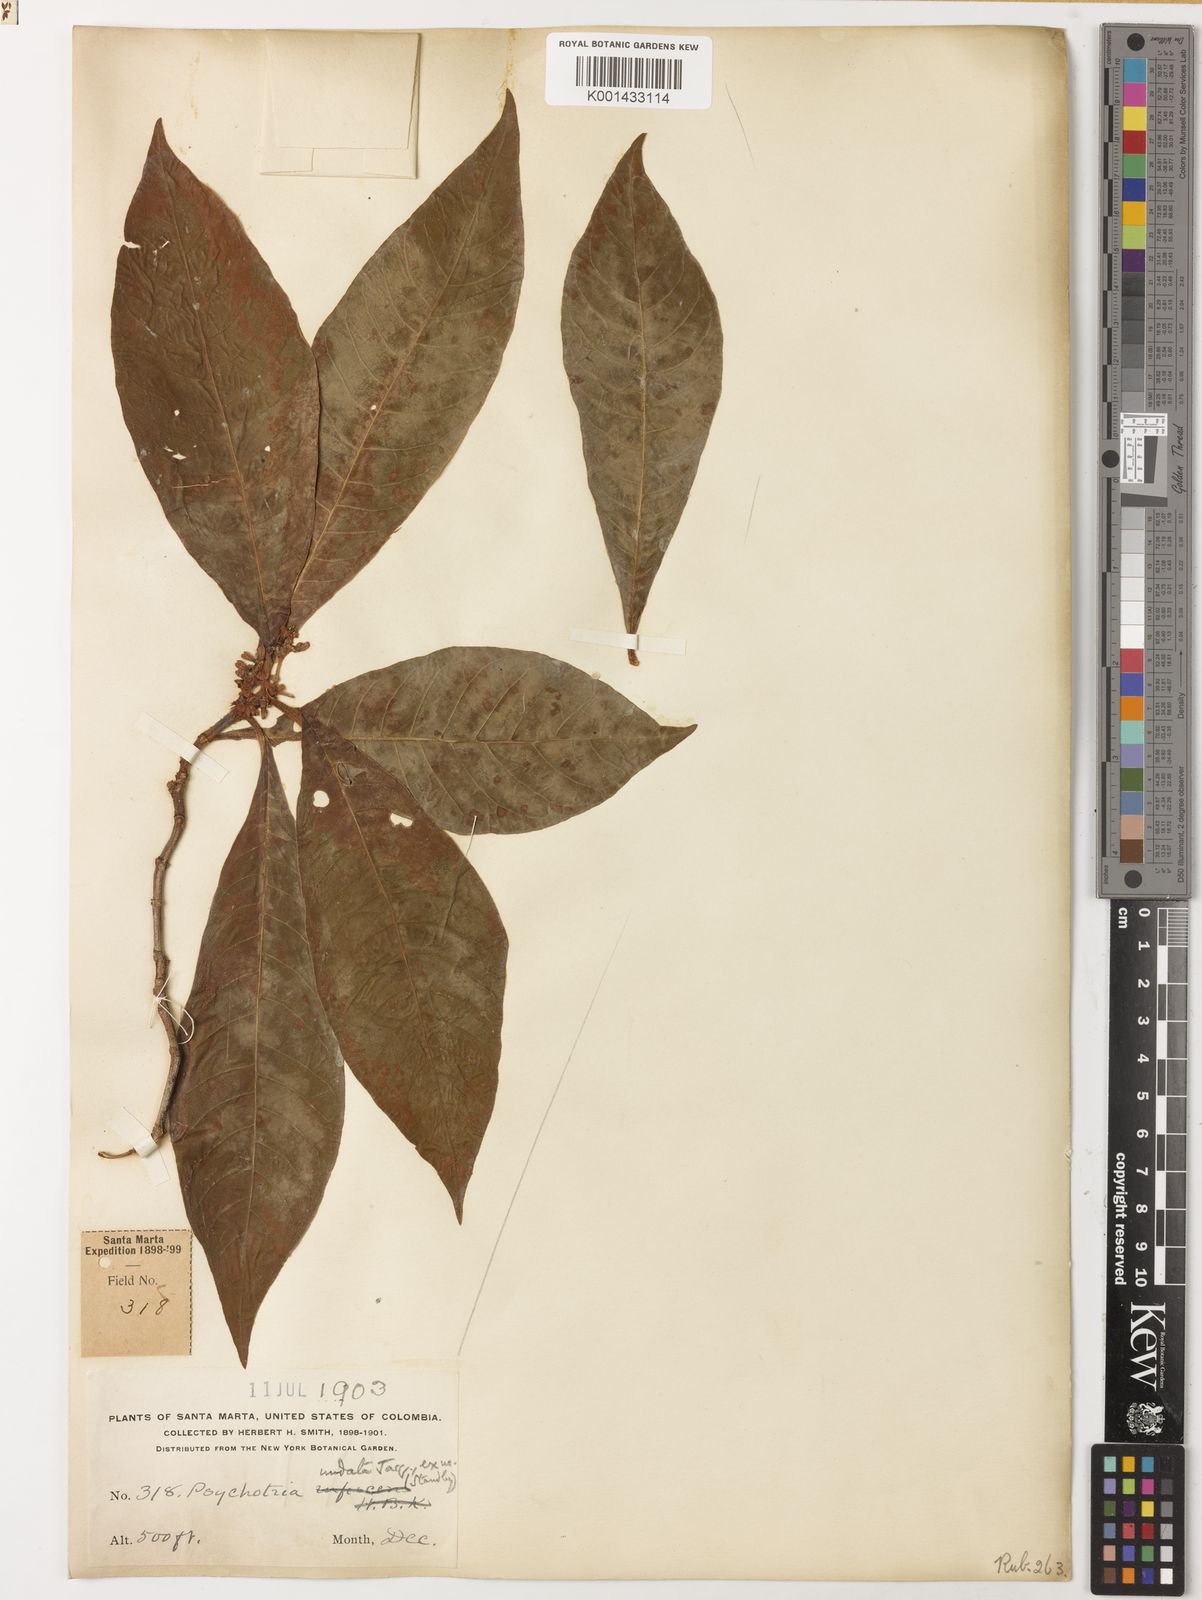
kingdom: Plantae
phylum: Tracheophyta
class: Magnoliopsida
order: Gentianales
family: Rubiaceae
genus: Palicourea
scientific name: Palicourea justiciifolia
